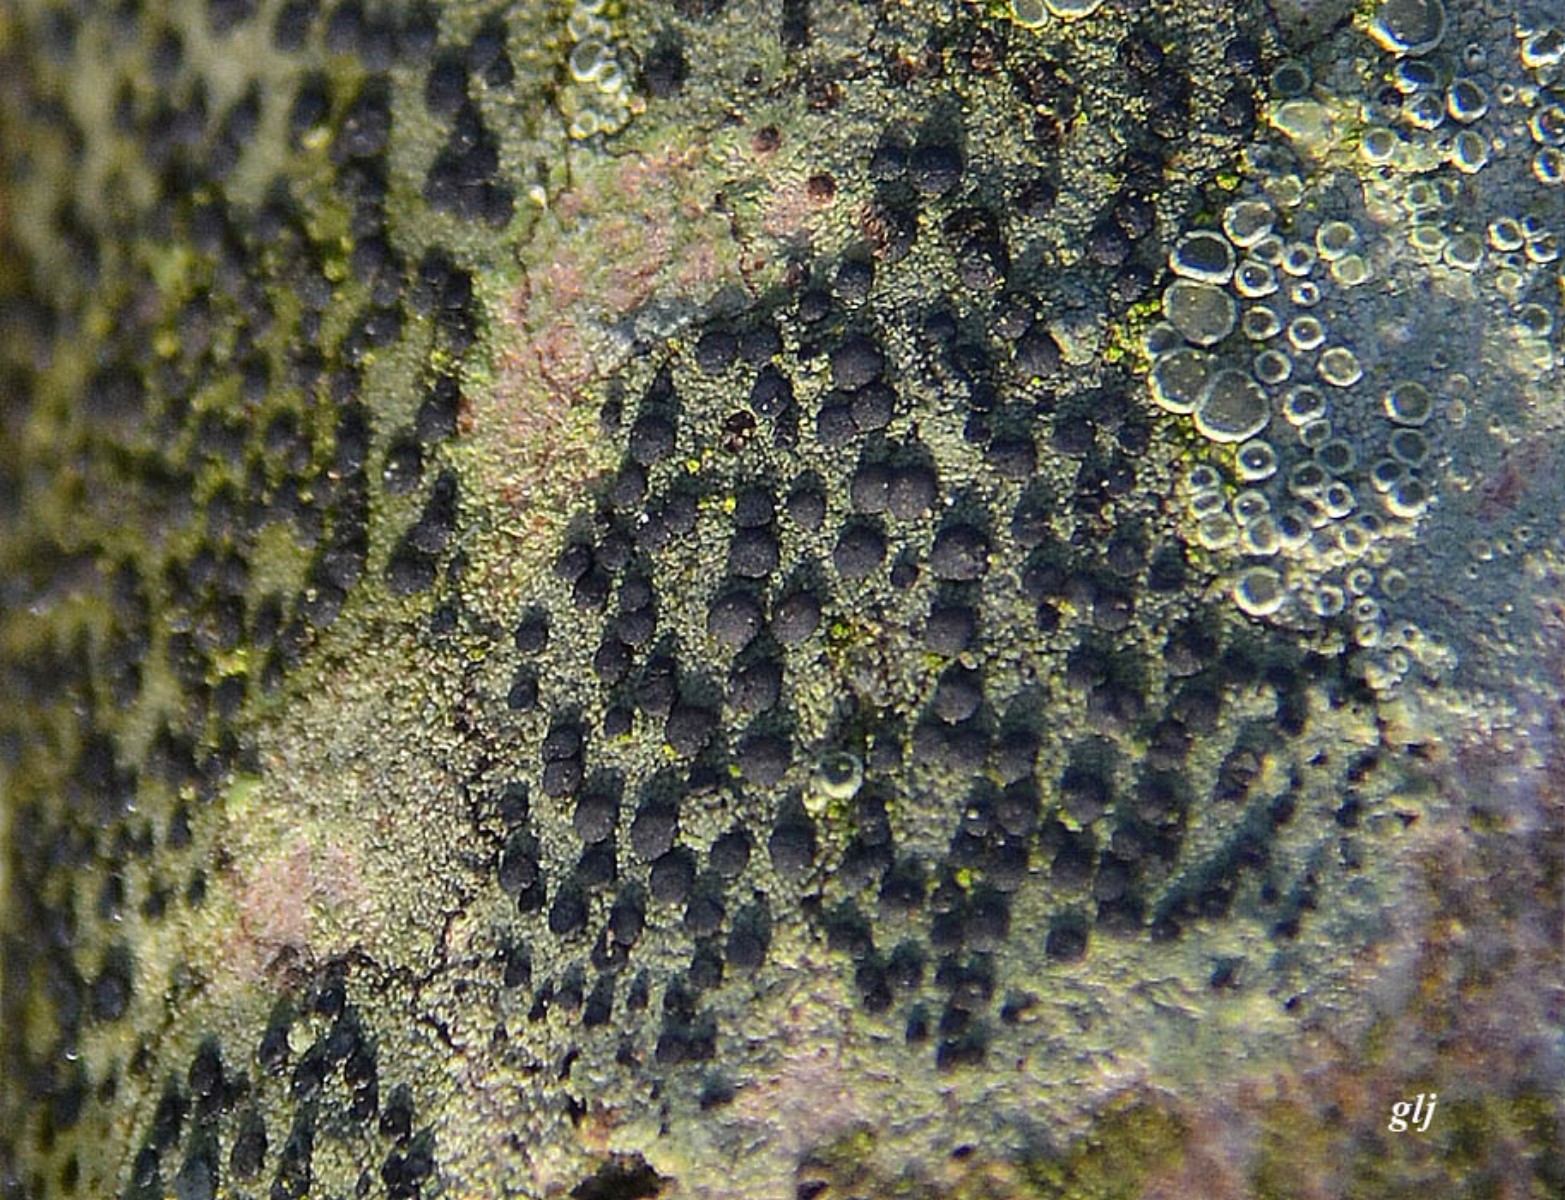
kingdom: Fungi
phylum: Ascomycota
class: Lecanoromycetes
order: Lecanorales
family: Lecanoraceae
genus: Lecidella
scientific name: Lecidella elaeochroma
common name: grågrøn skivelav
